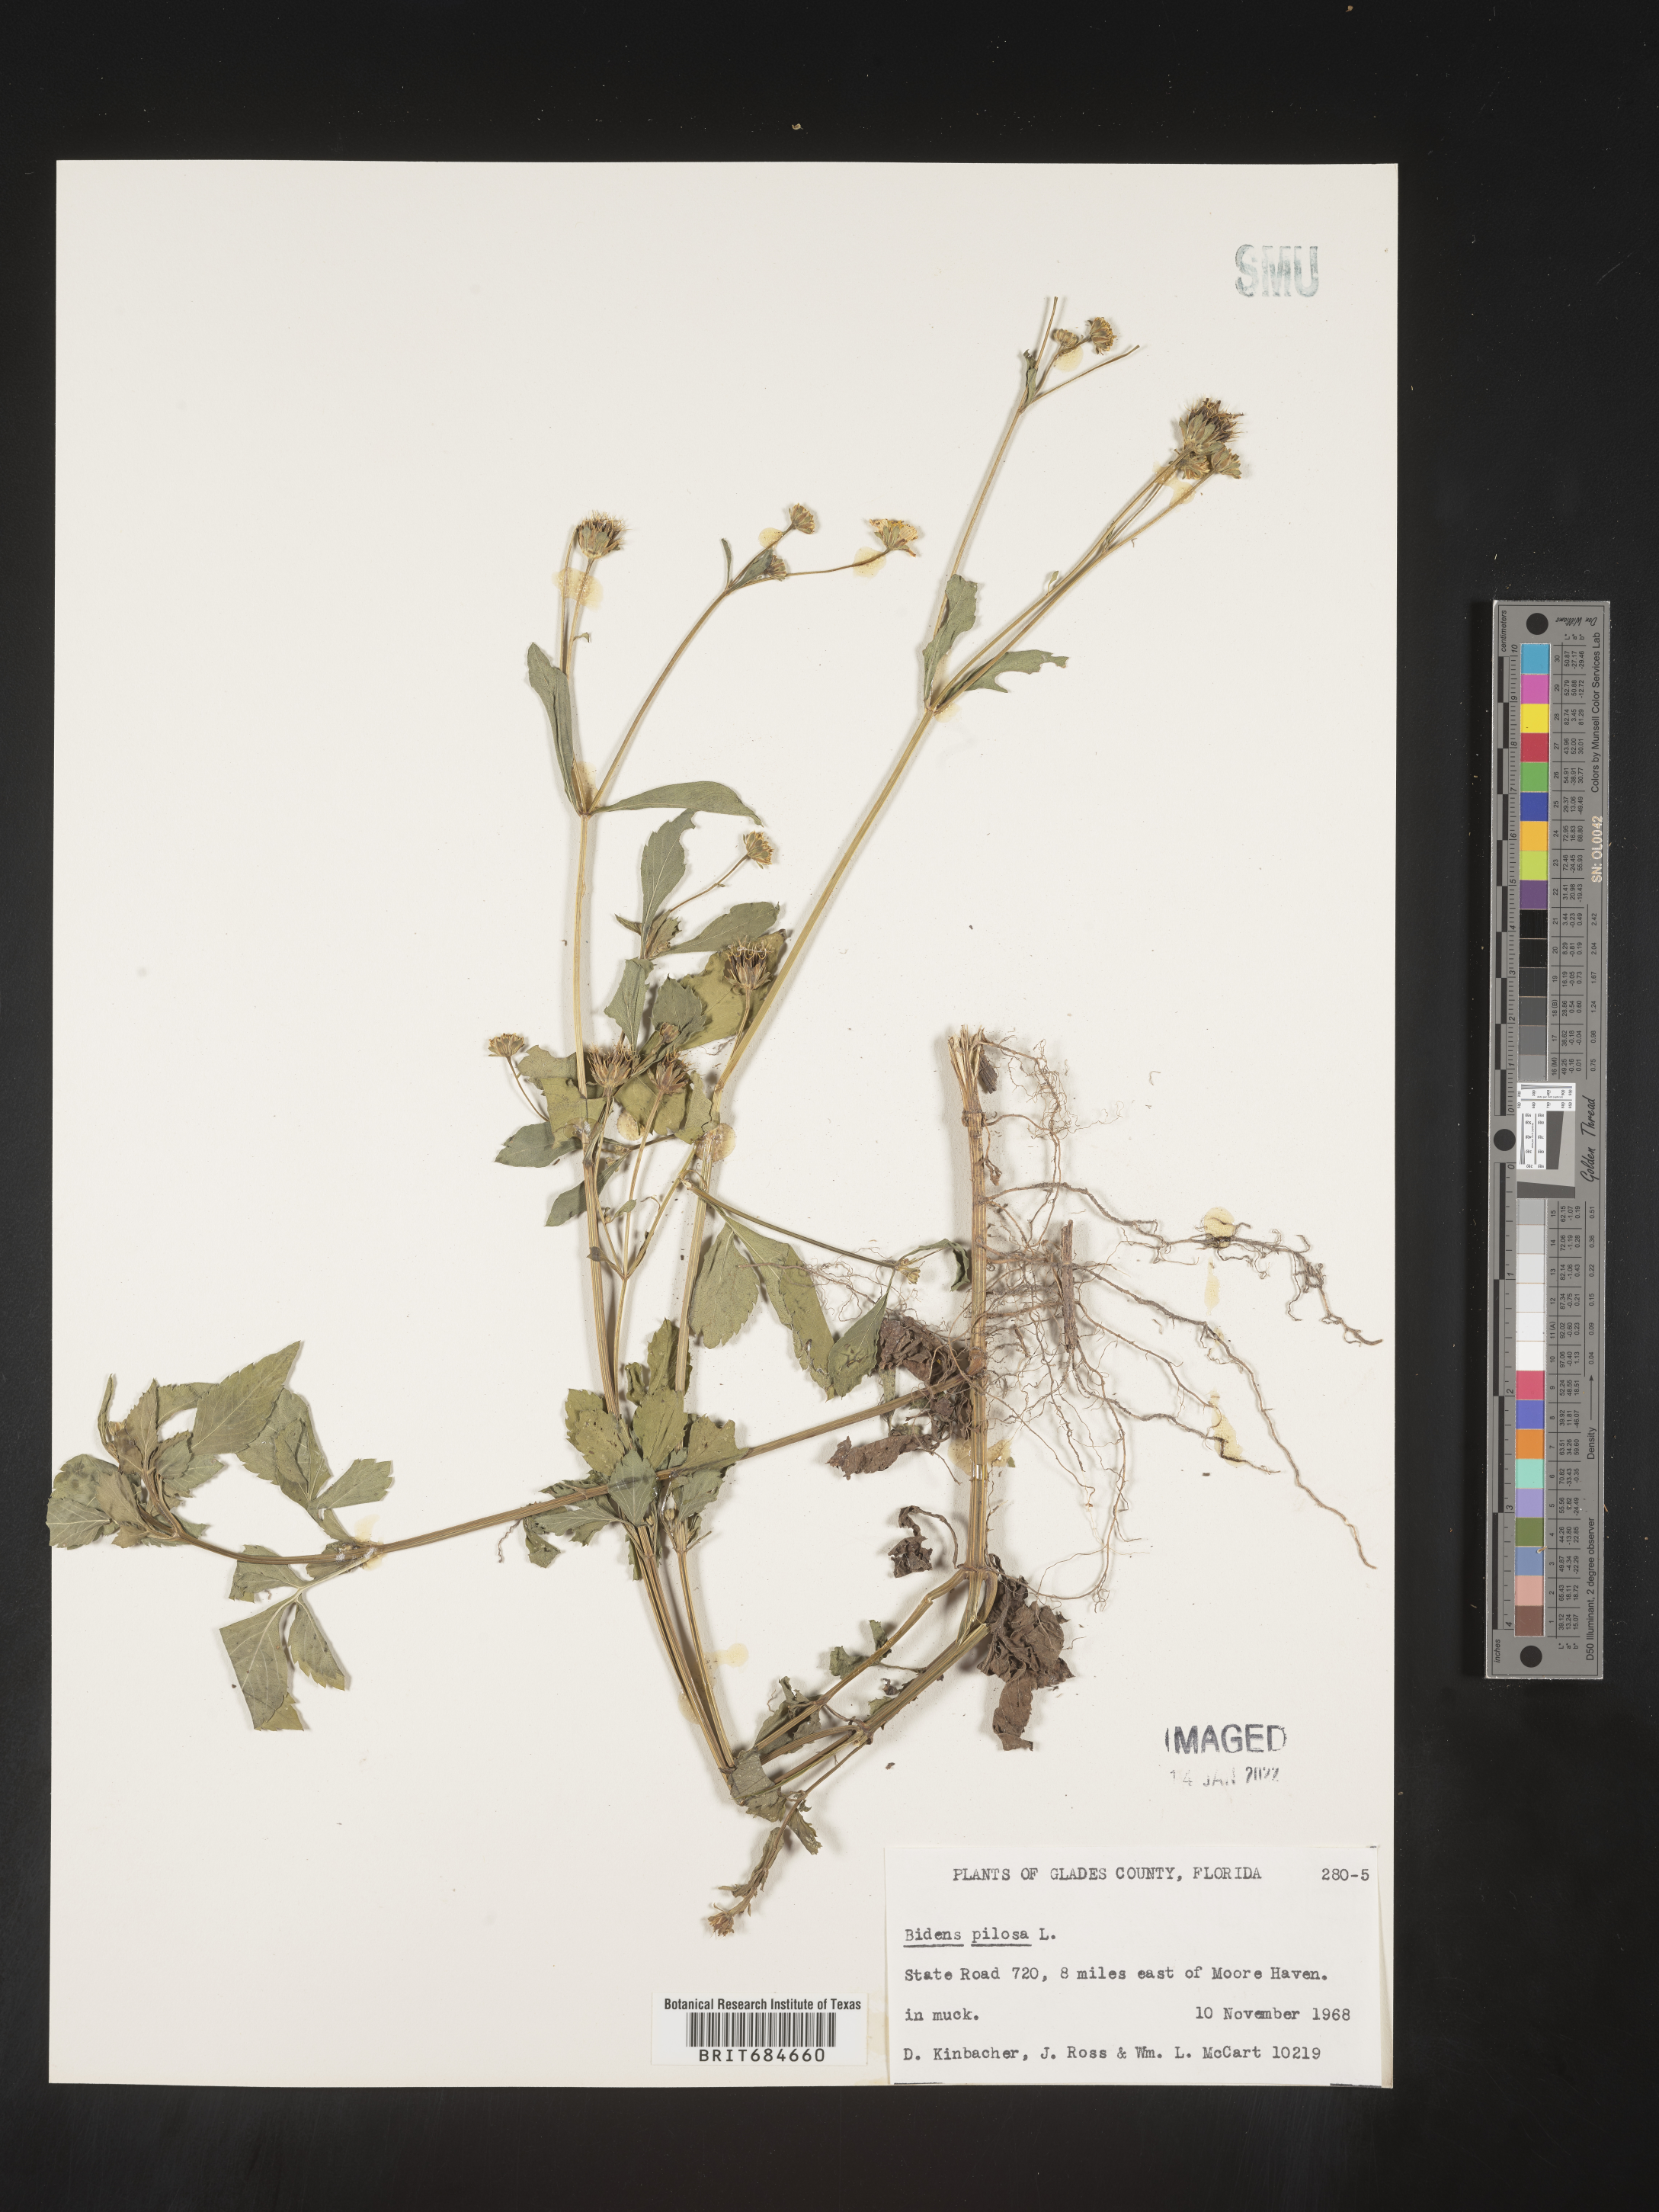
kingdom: Plantae
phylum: Tracheophyta
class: Magnoliopsida
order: Asterales
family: Asteraceae
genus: Bidens
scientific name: Bidens pilosa
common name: Black-jack
